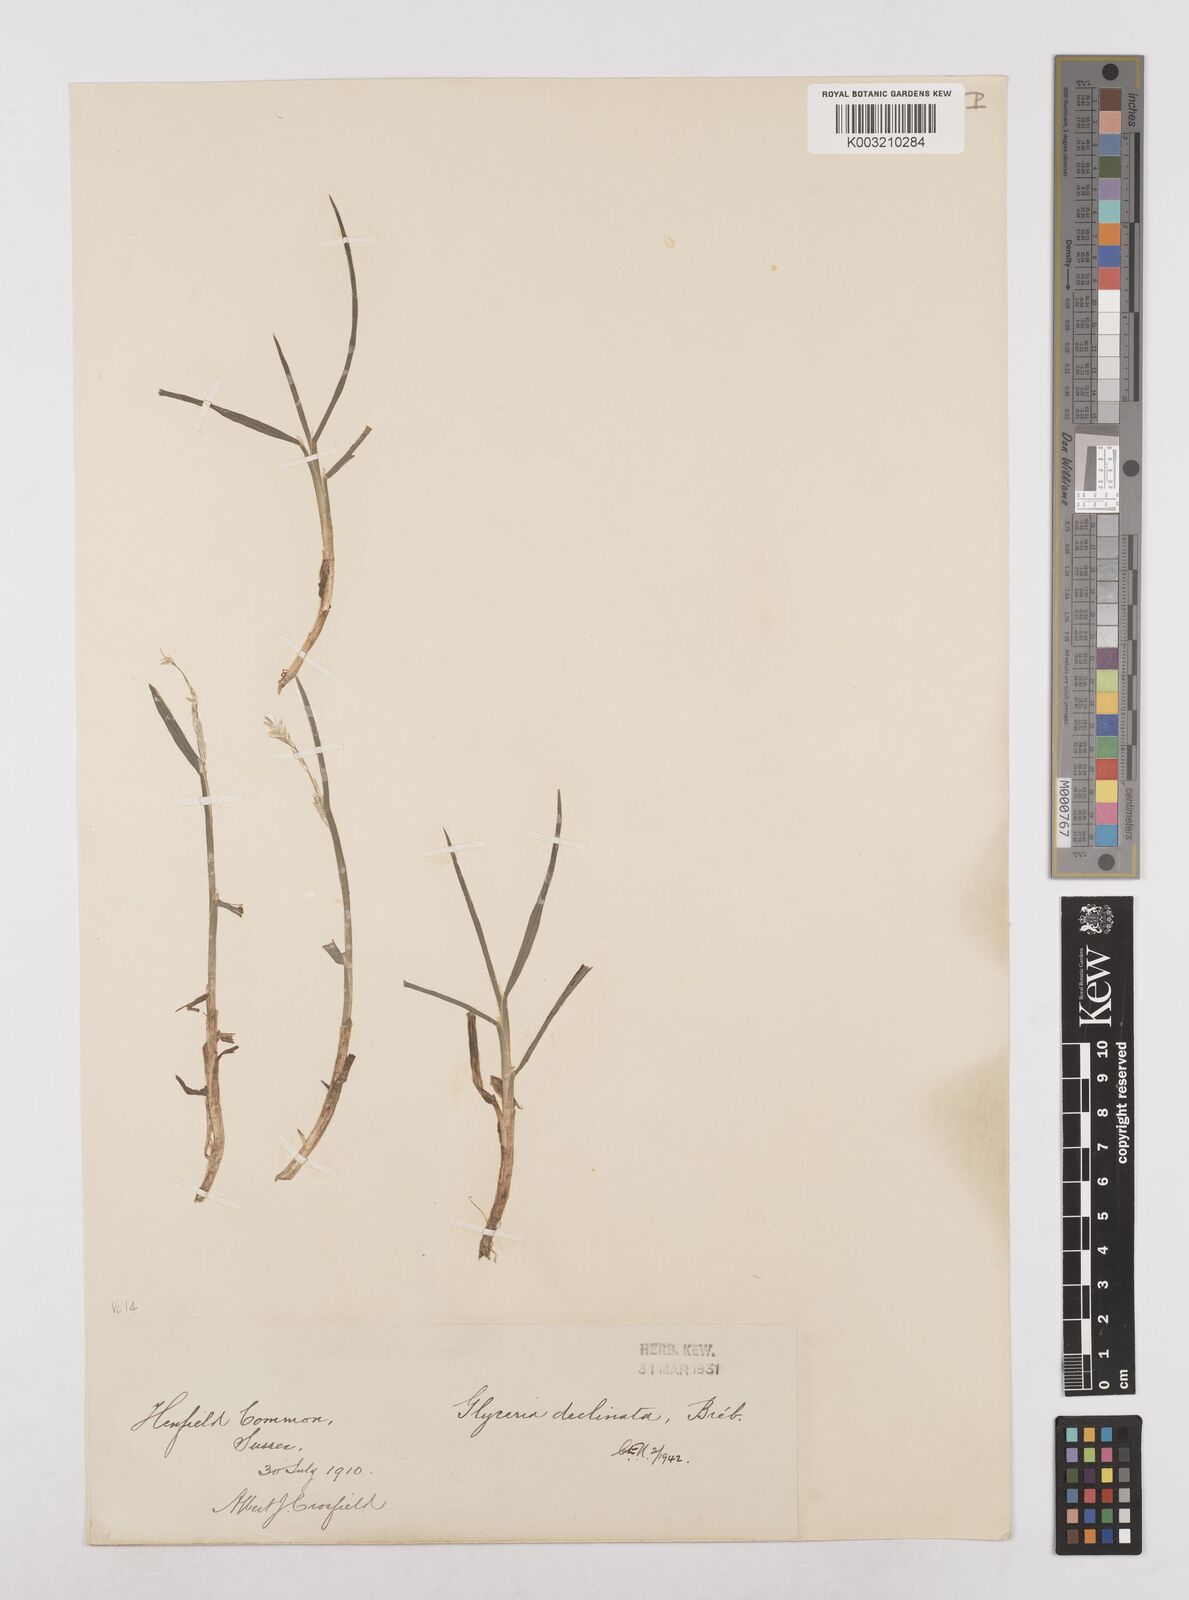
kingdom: Plantae
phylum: Tracheophyta
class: Liliopsida
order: Poales
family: Poaceae
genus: Glyceria
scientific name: Glyceria declinata
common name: Small sweet-grass
